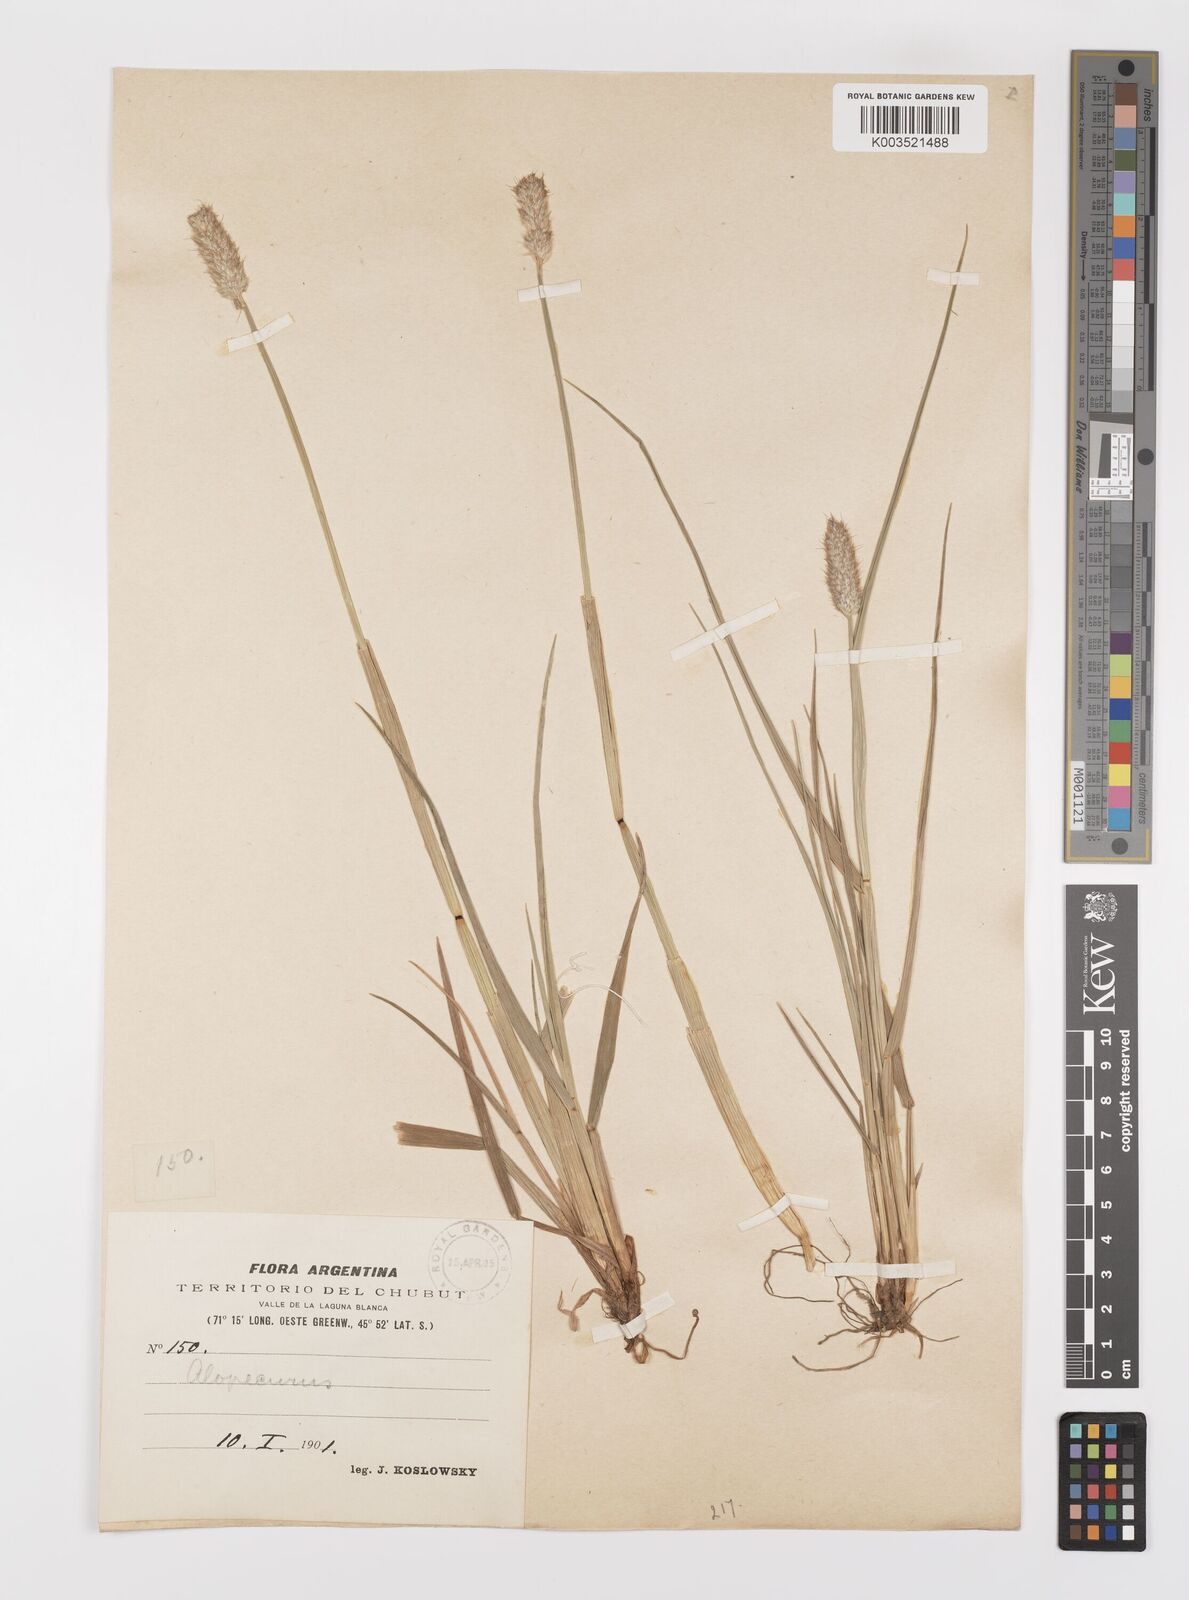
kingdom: Plantae
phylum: Tracheophyta
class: Liliopsida
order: Poales
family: Poaceae
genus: Alopecurus
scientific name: Alopecurus magellanicus
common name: Alpine foxtail
